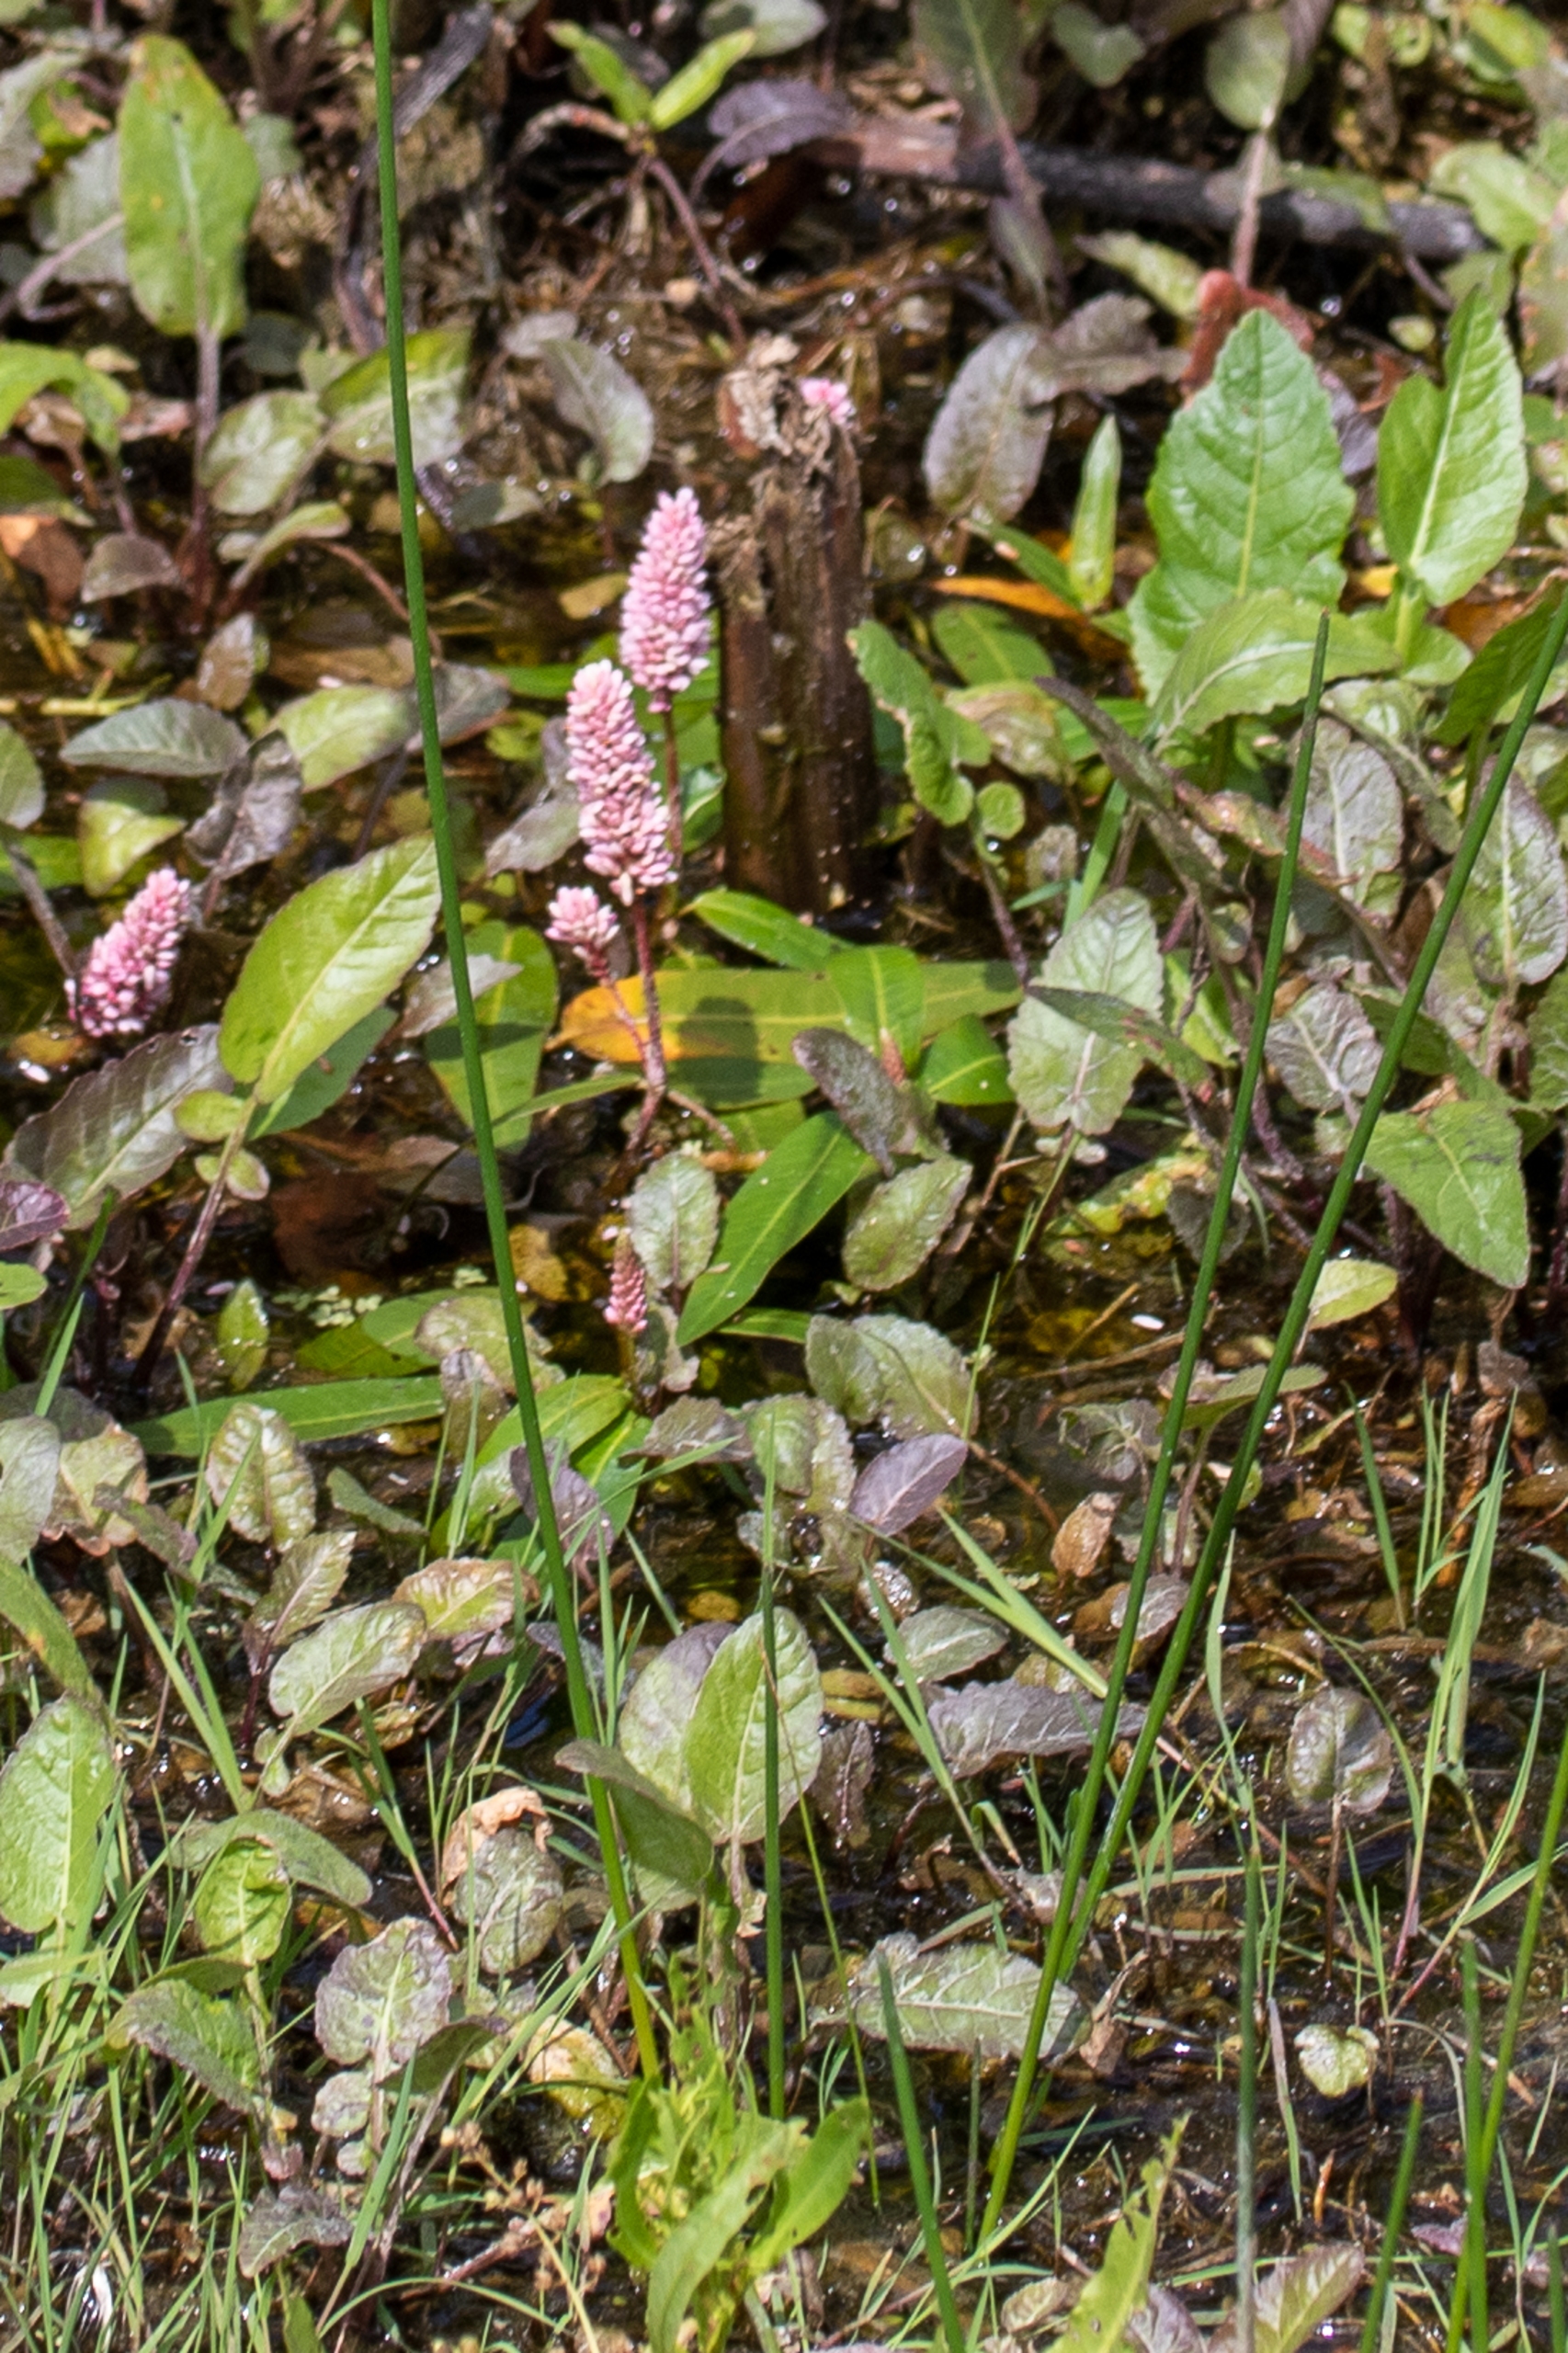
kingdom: Plantae
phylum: Tracheophyta
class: Magnoliopsida
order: Caryophyllales
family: Polygonaceae
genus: Persicaria
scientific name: Persicaria amphibia
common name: Vand-pileurt
